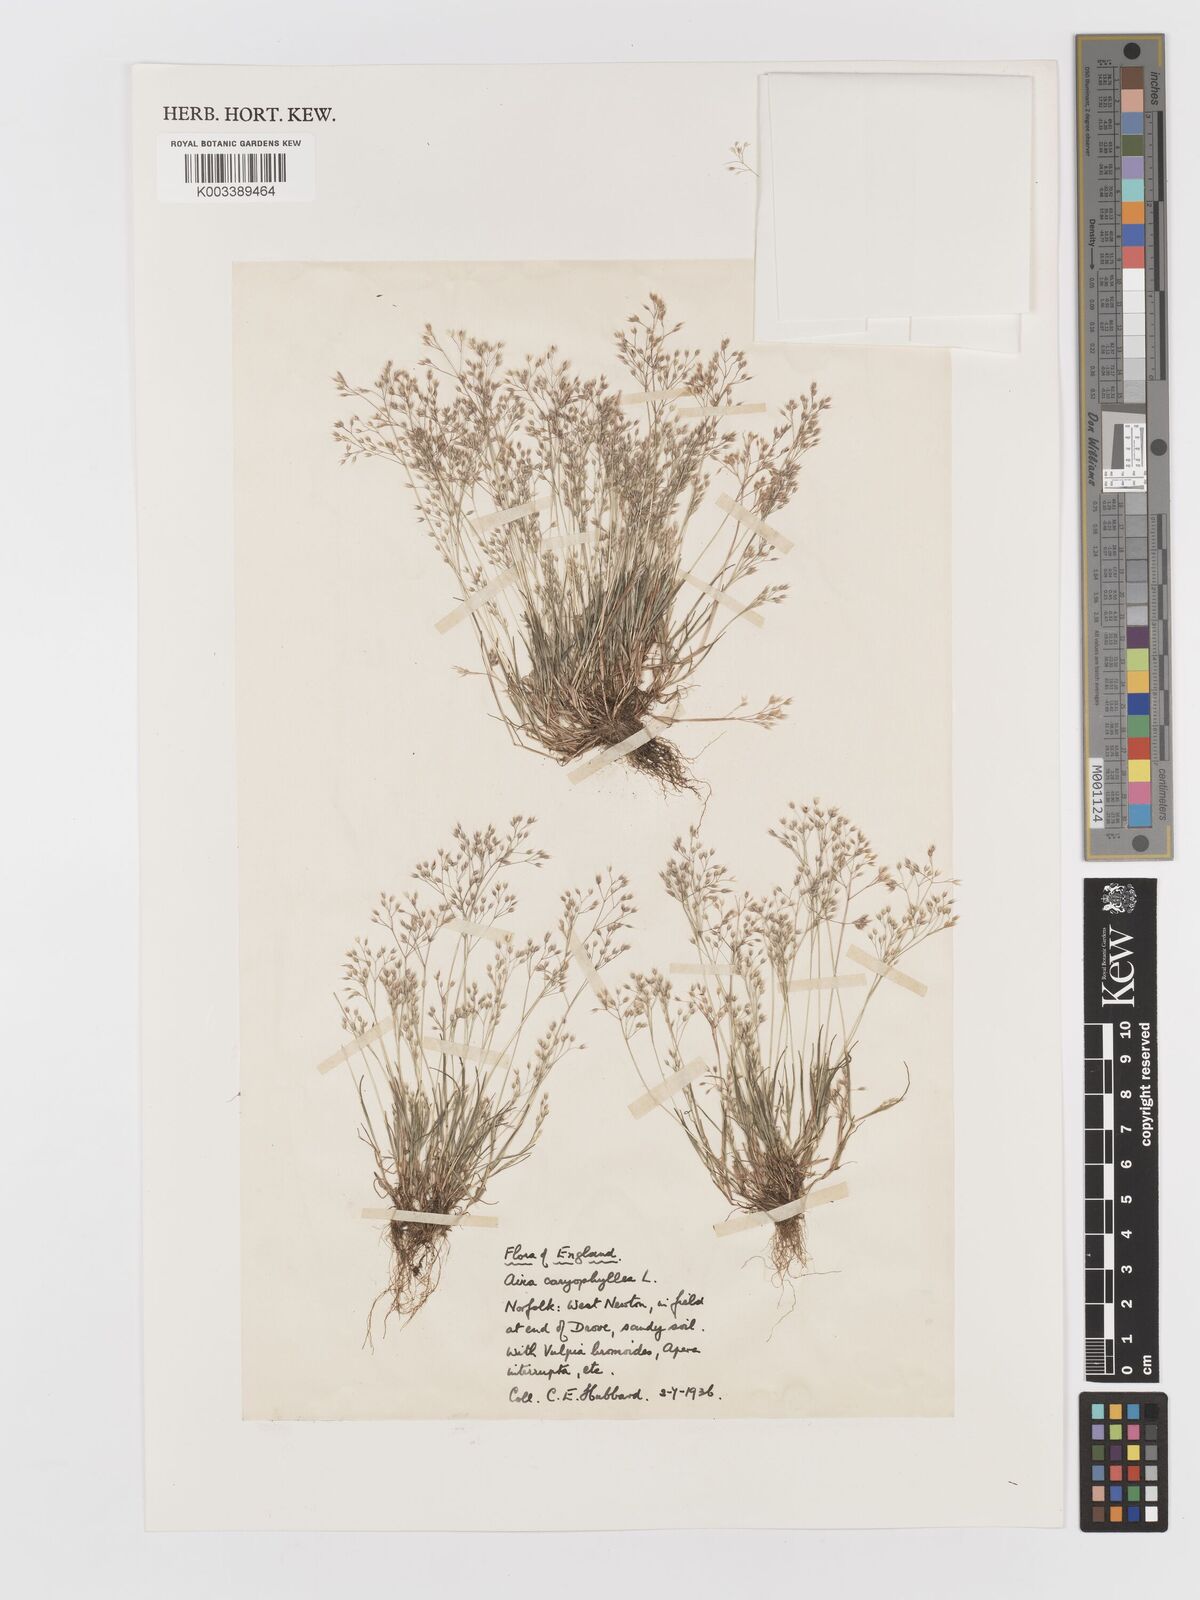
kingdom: Plantae
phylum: Tracheophyta
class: Liliopsida
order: Poales
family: Poaceae
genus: Aira
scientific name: Aira caryophyllea
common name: Silver hairgrass
